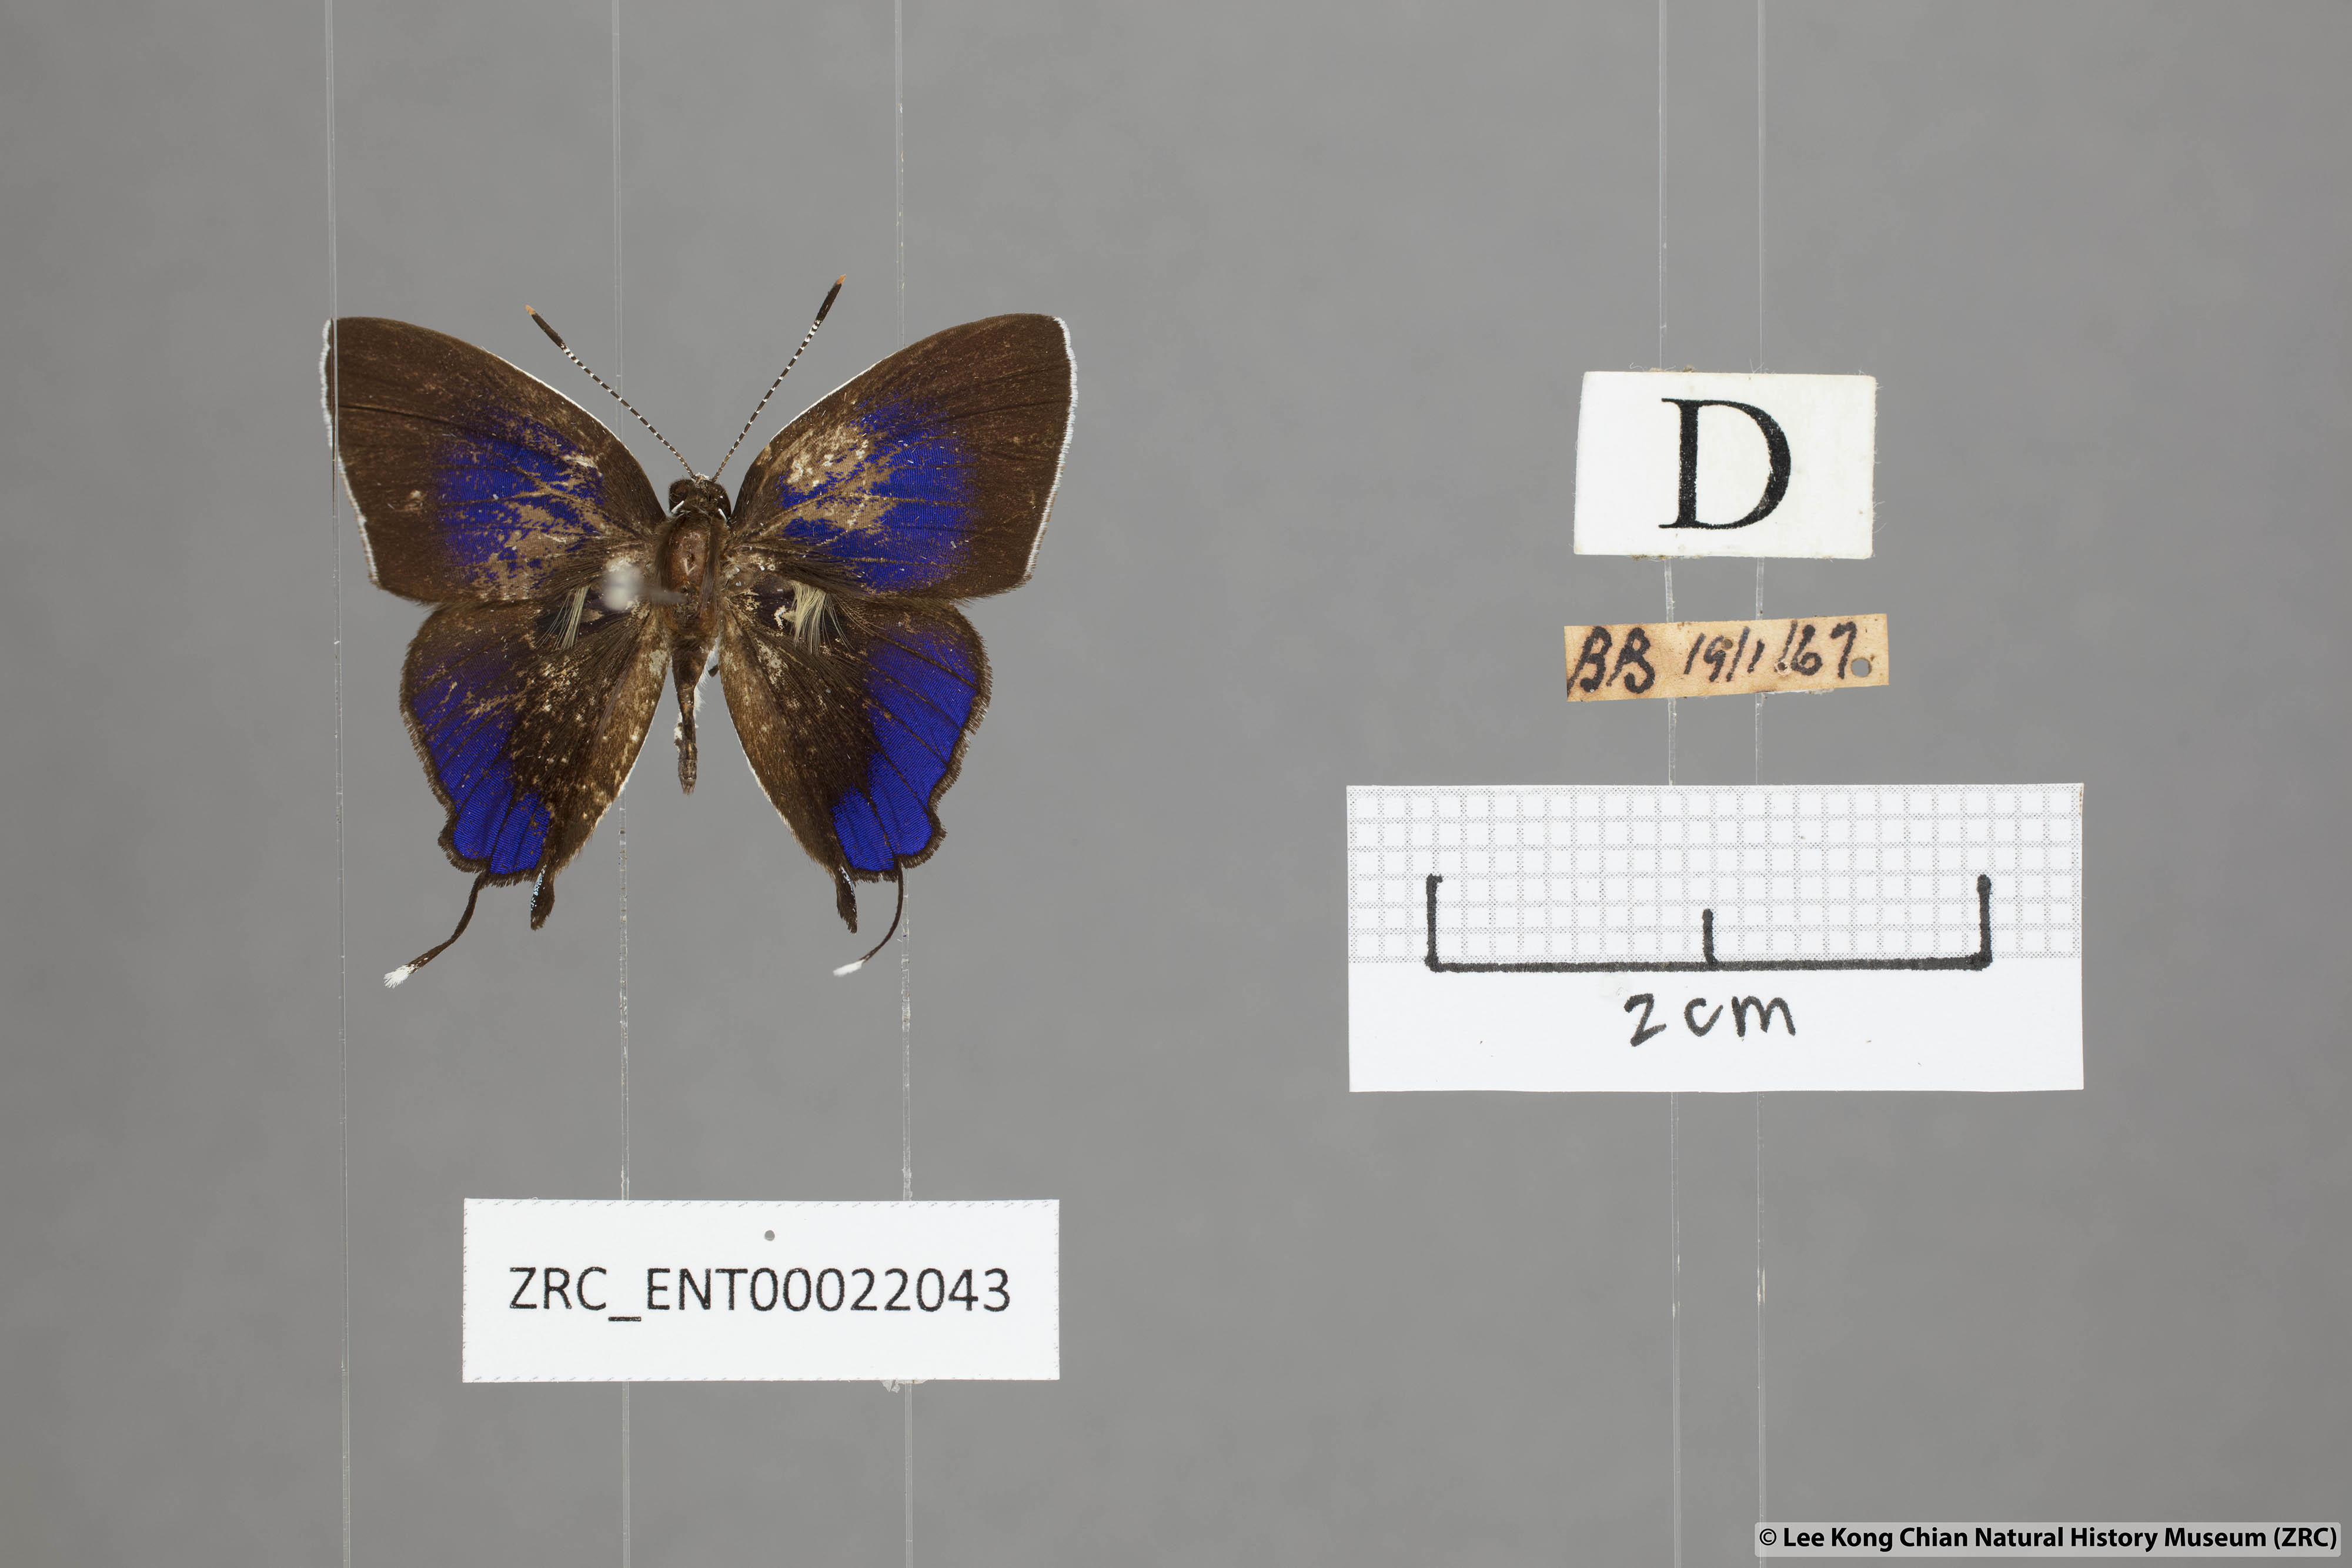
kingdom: Animalia
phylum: Arthropoda
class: Insecta
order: Lepidoptera
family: Lycaenidae
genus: Sithon
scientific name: Sithon nedymond
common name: Plush
